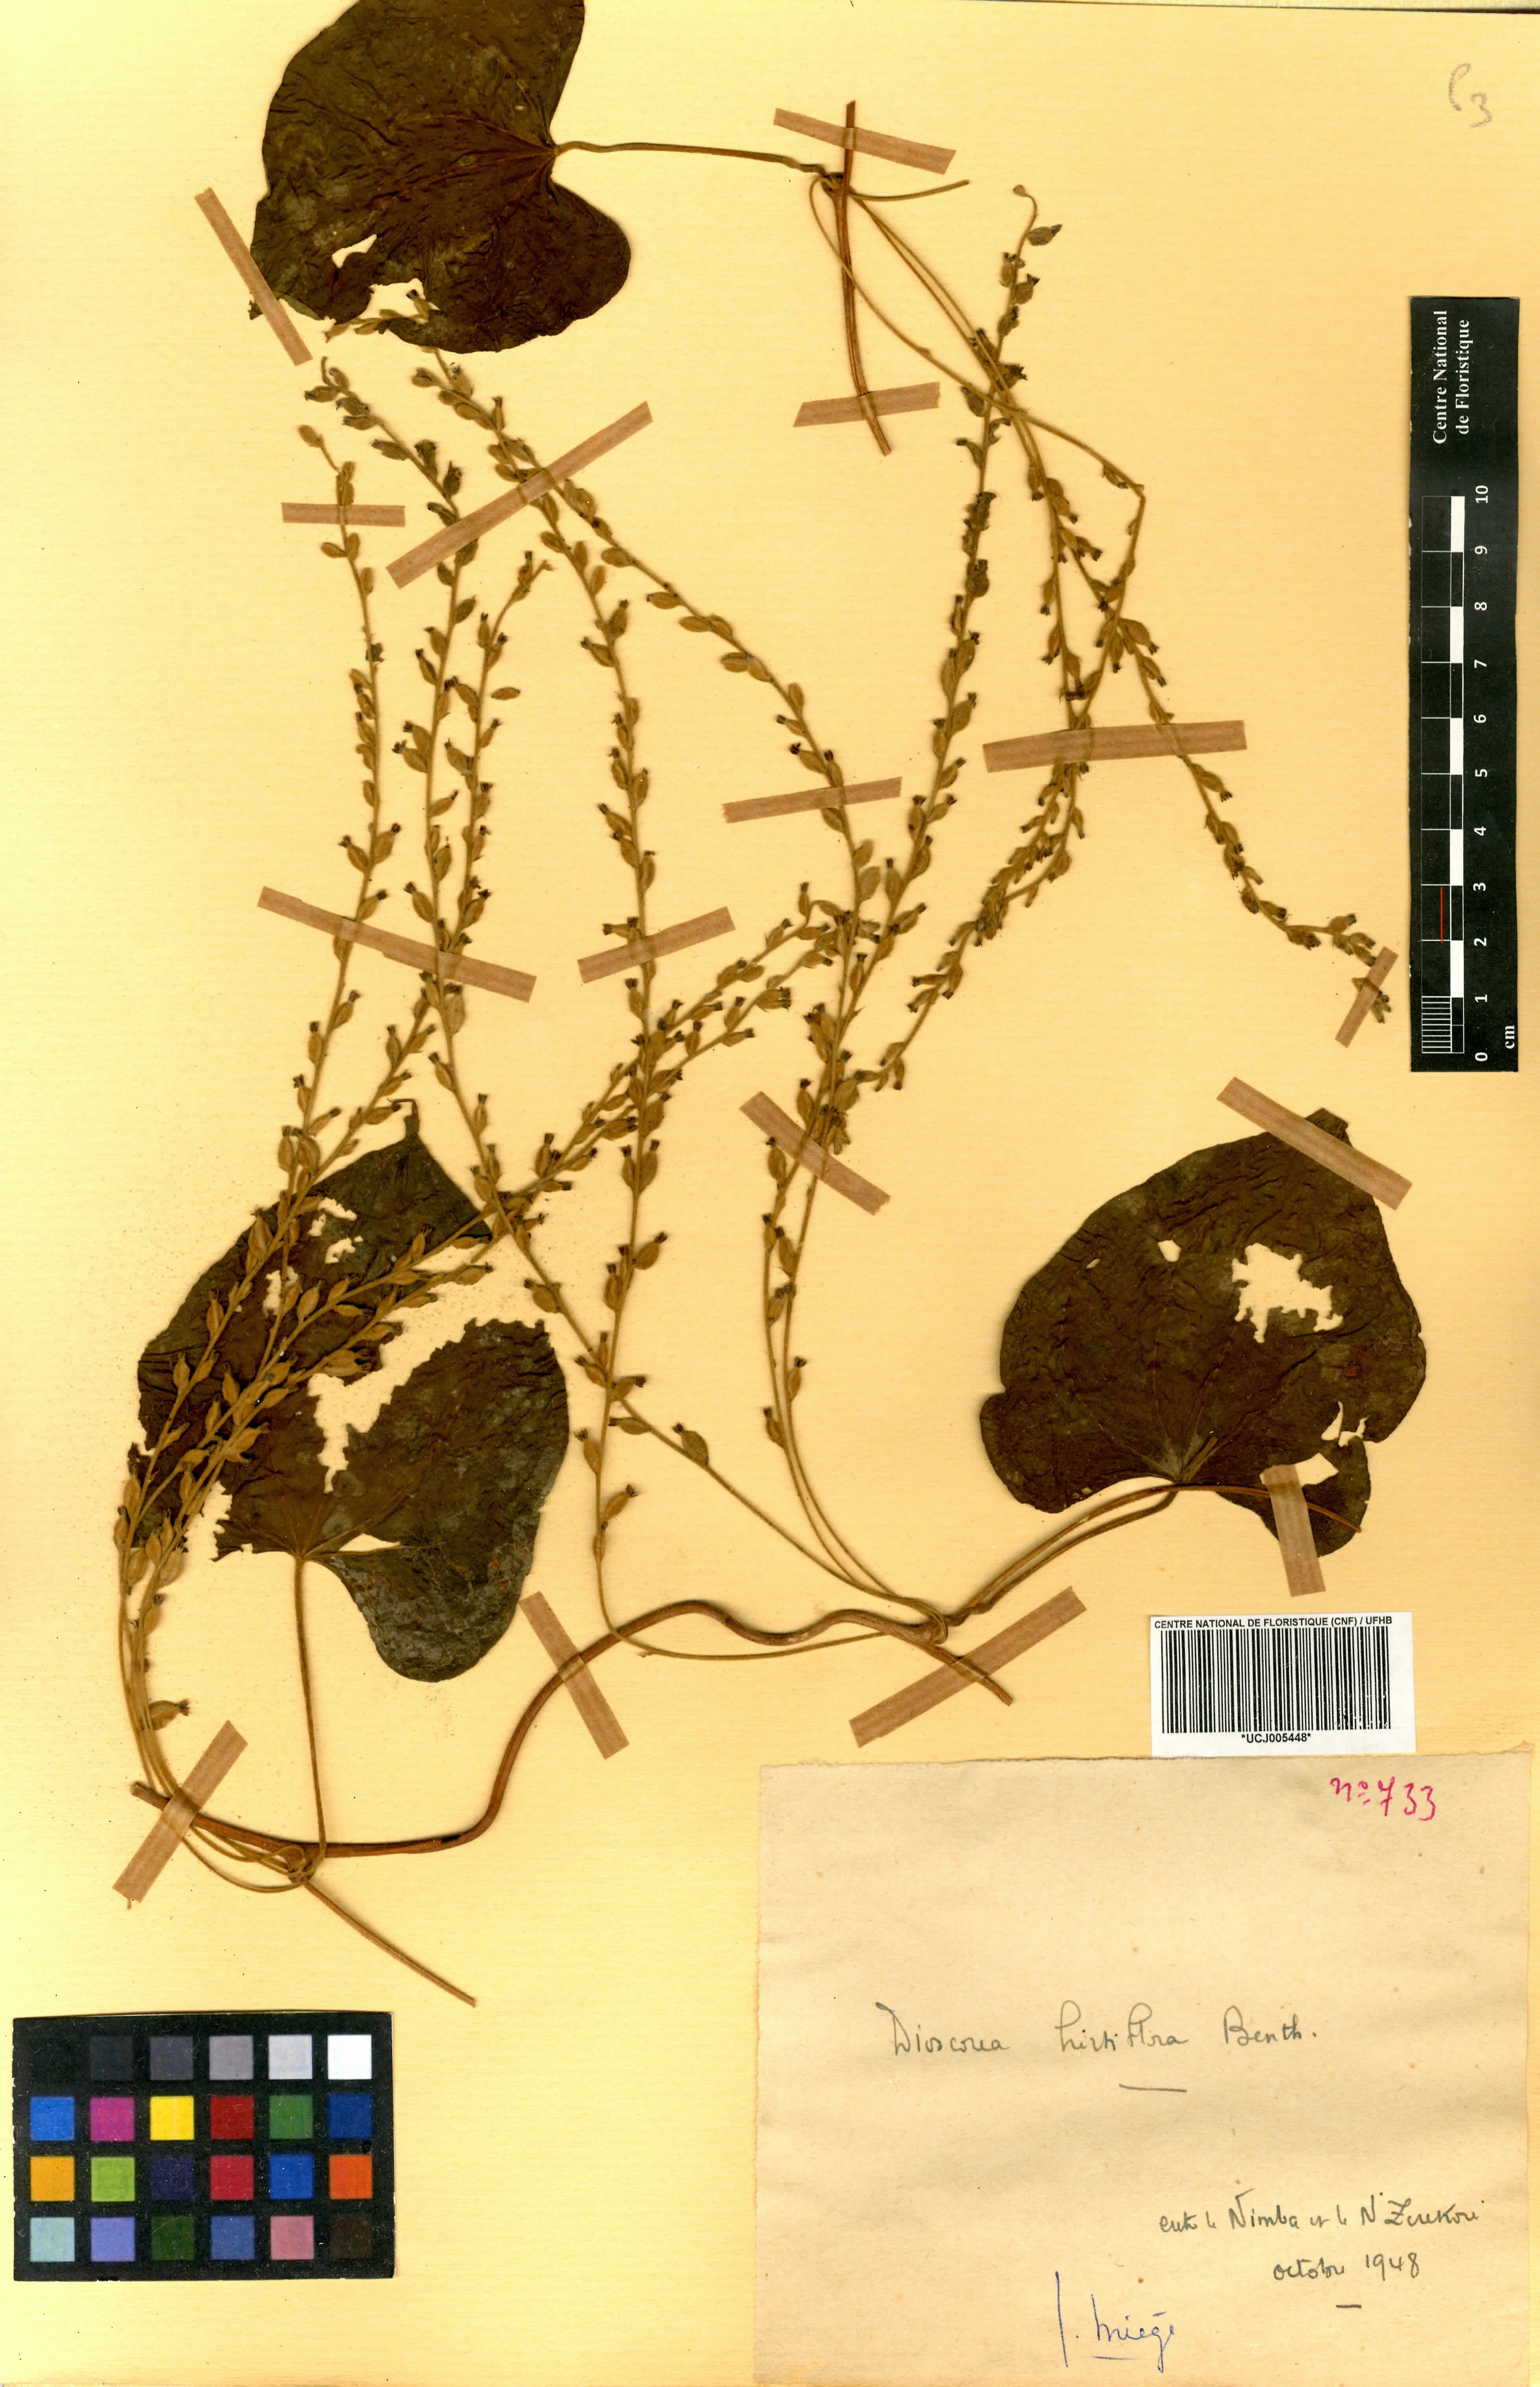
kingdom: Plantae
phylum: Tracheophyta
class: Liliopsida
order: Dioscoreales
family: Dioscoreaceae
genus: Dioscorea
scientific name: Dioscorea hirtiflora
